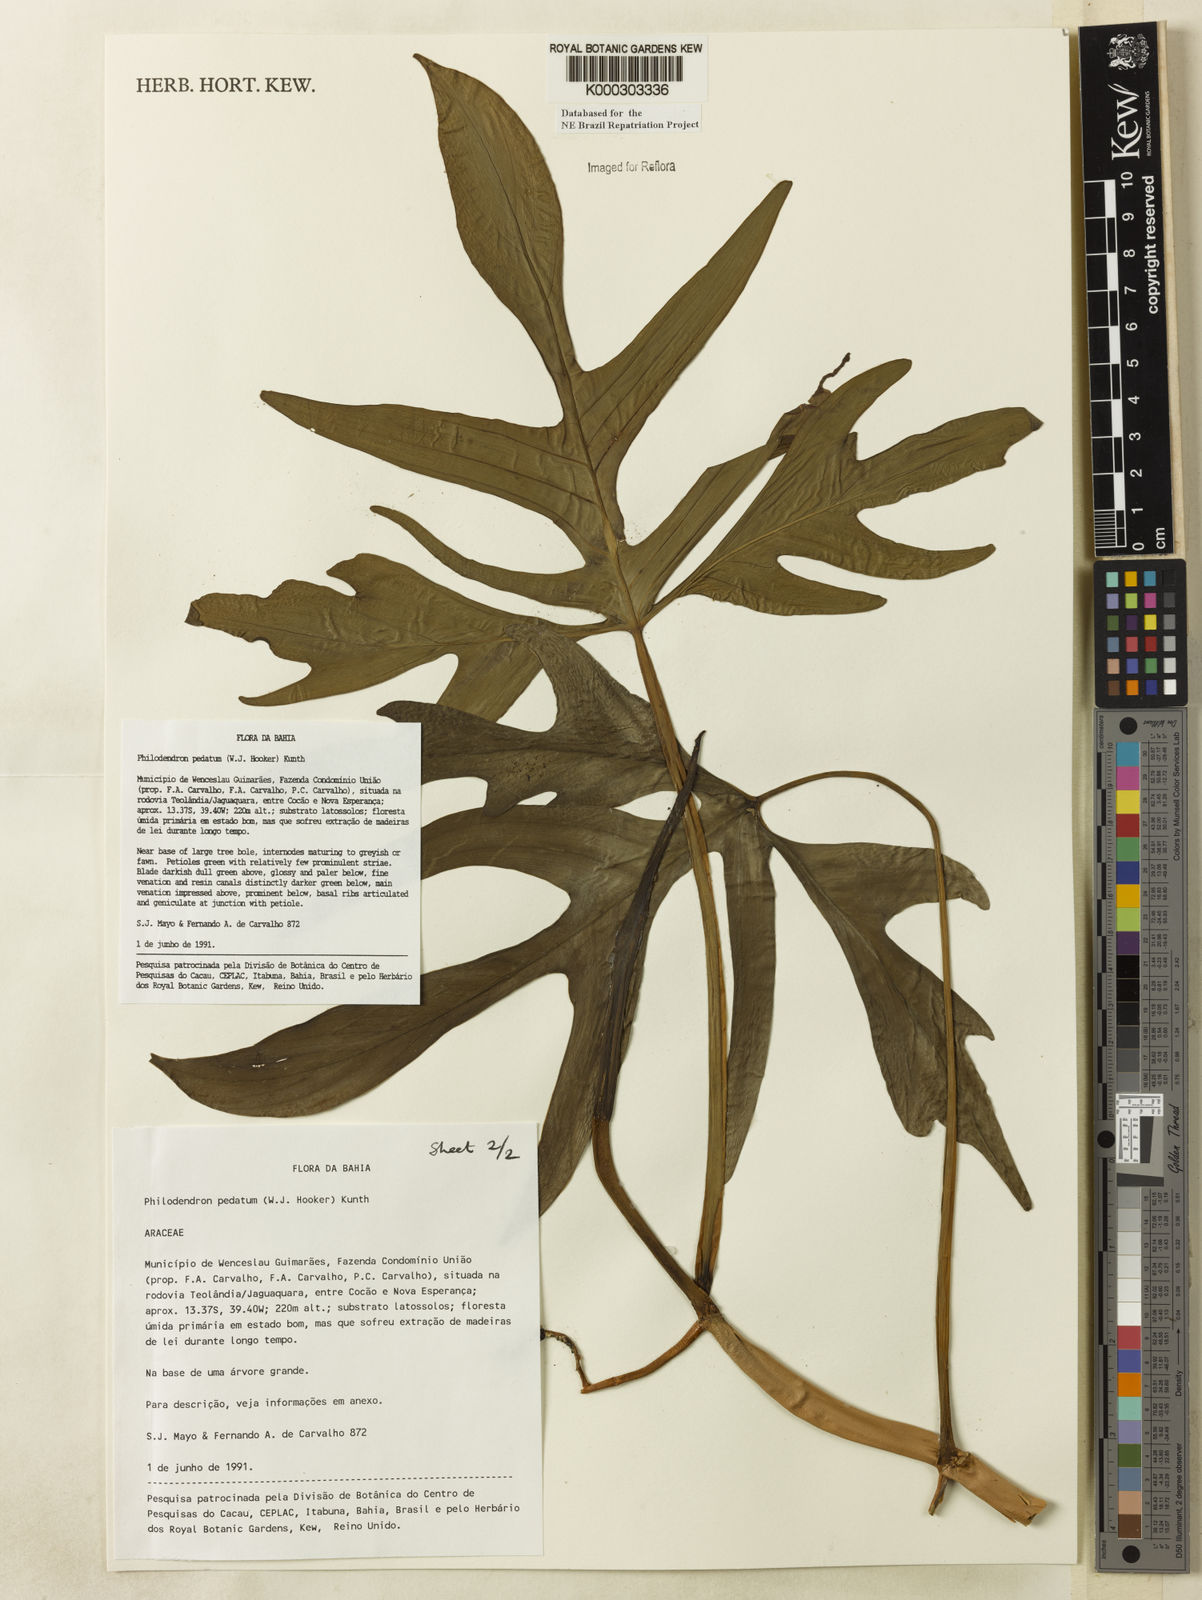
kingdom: Plantae
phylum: Tracheophyta
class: Liliopsida
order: Alismatales
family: Araceae
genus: Philodendron
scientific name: Philodendron pedatum
